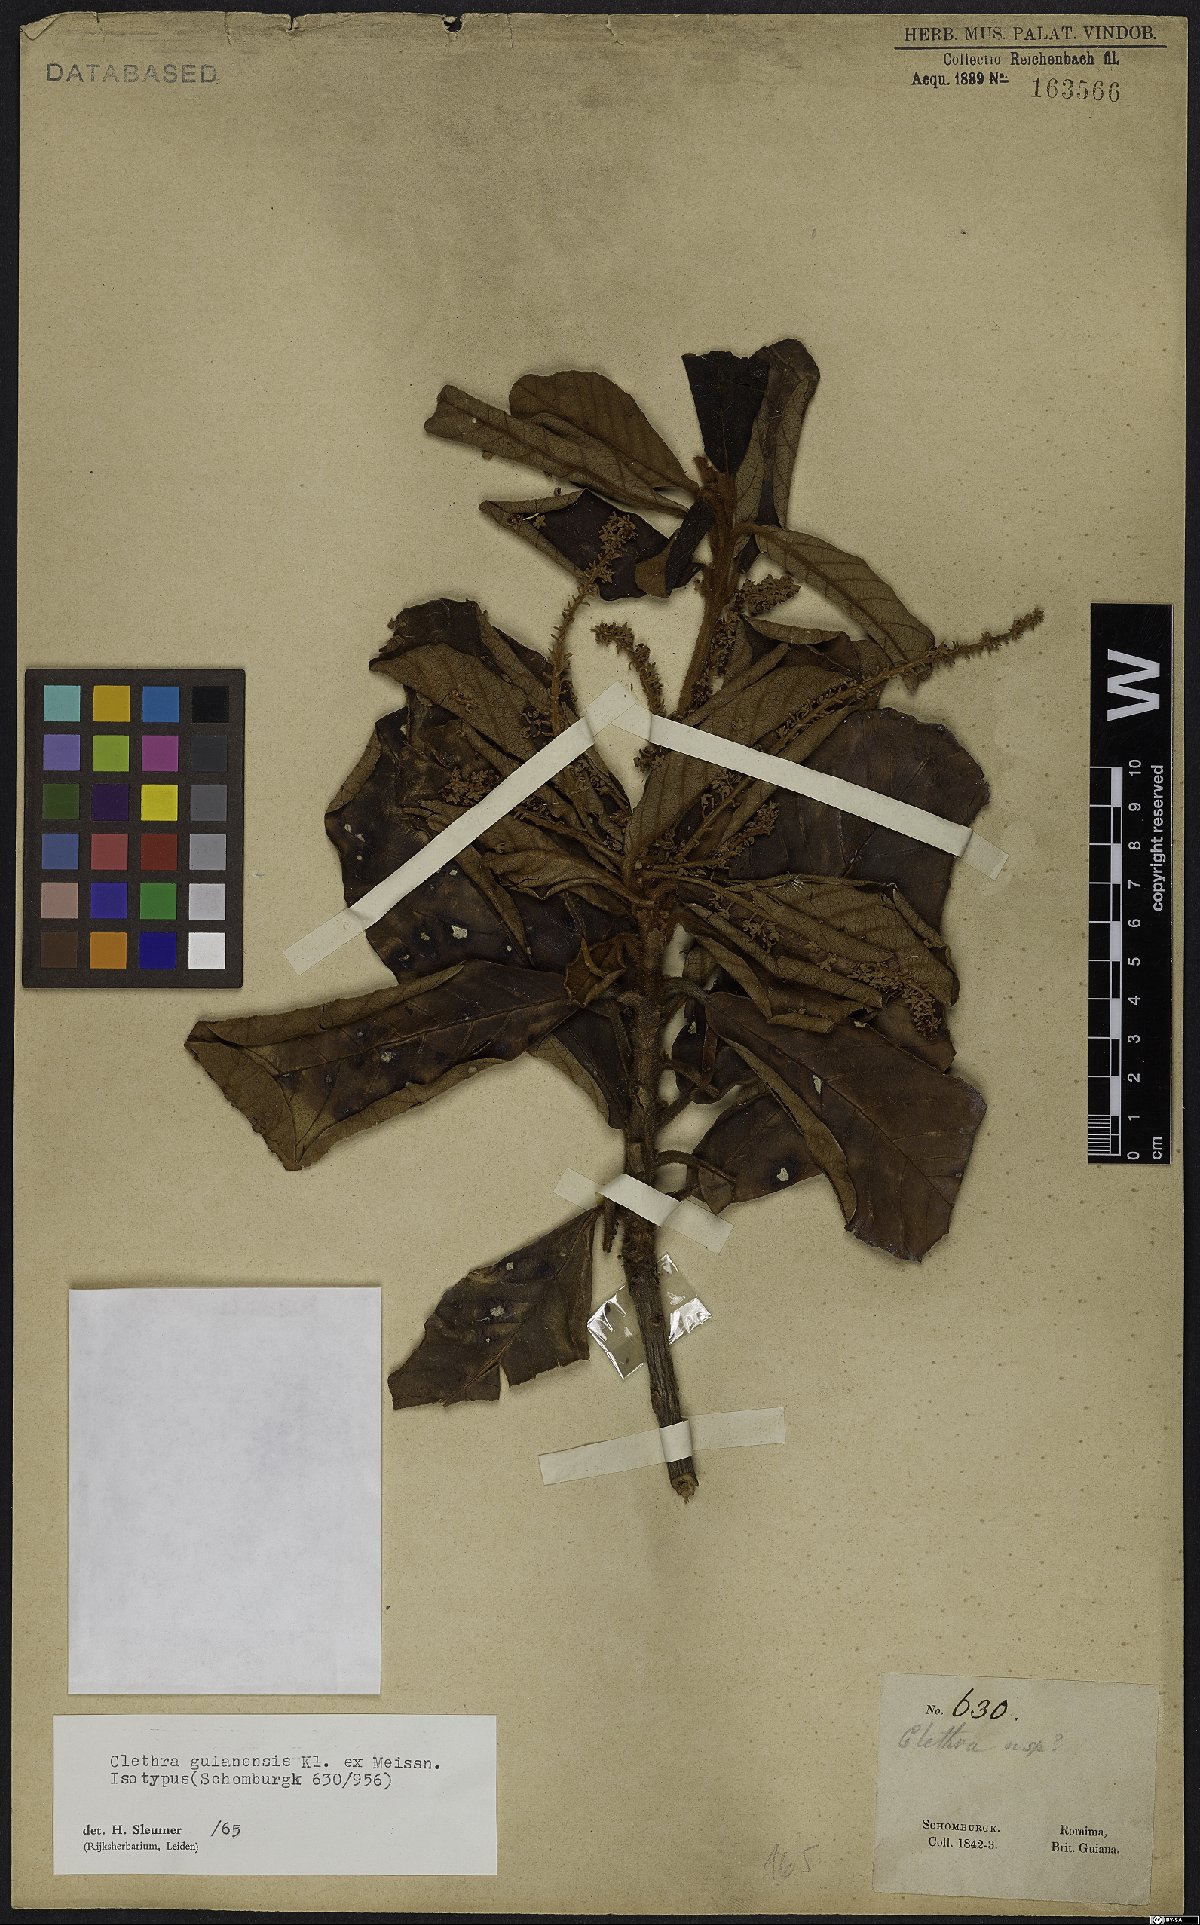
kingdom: Plantae
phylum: Tracheophyta
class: Magnoliopsida
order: Ericales
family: Clethraceae
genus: Clethra
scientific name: Clethra guyanensis
